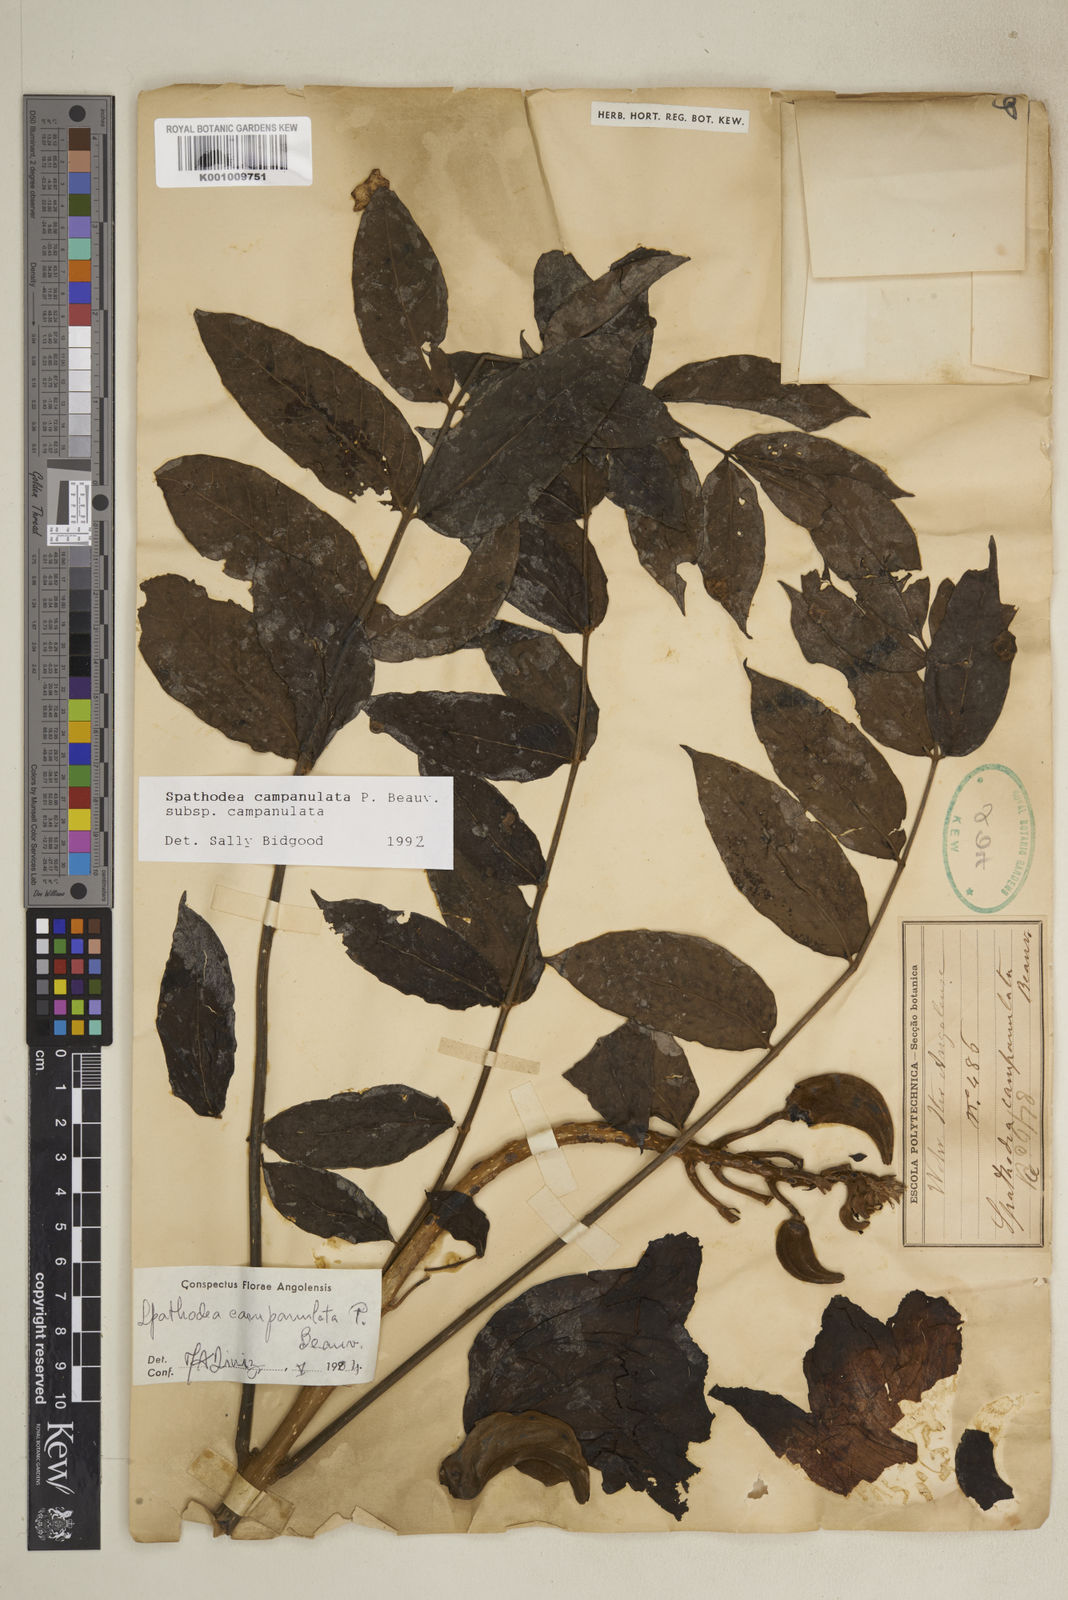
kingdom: Plantae
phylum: Tracheophyta
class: Magnoliopsida
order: Lamiales
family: Bignoniaceae
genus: Spathodea
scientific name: Spathodea campanulata
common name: African tuliptree
